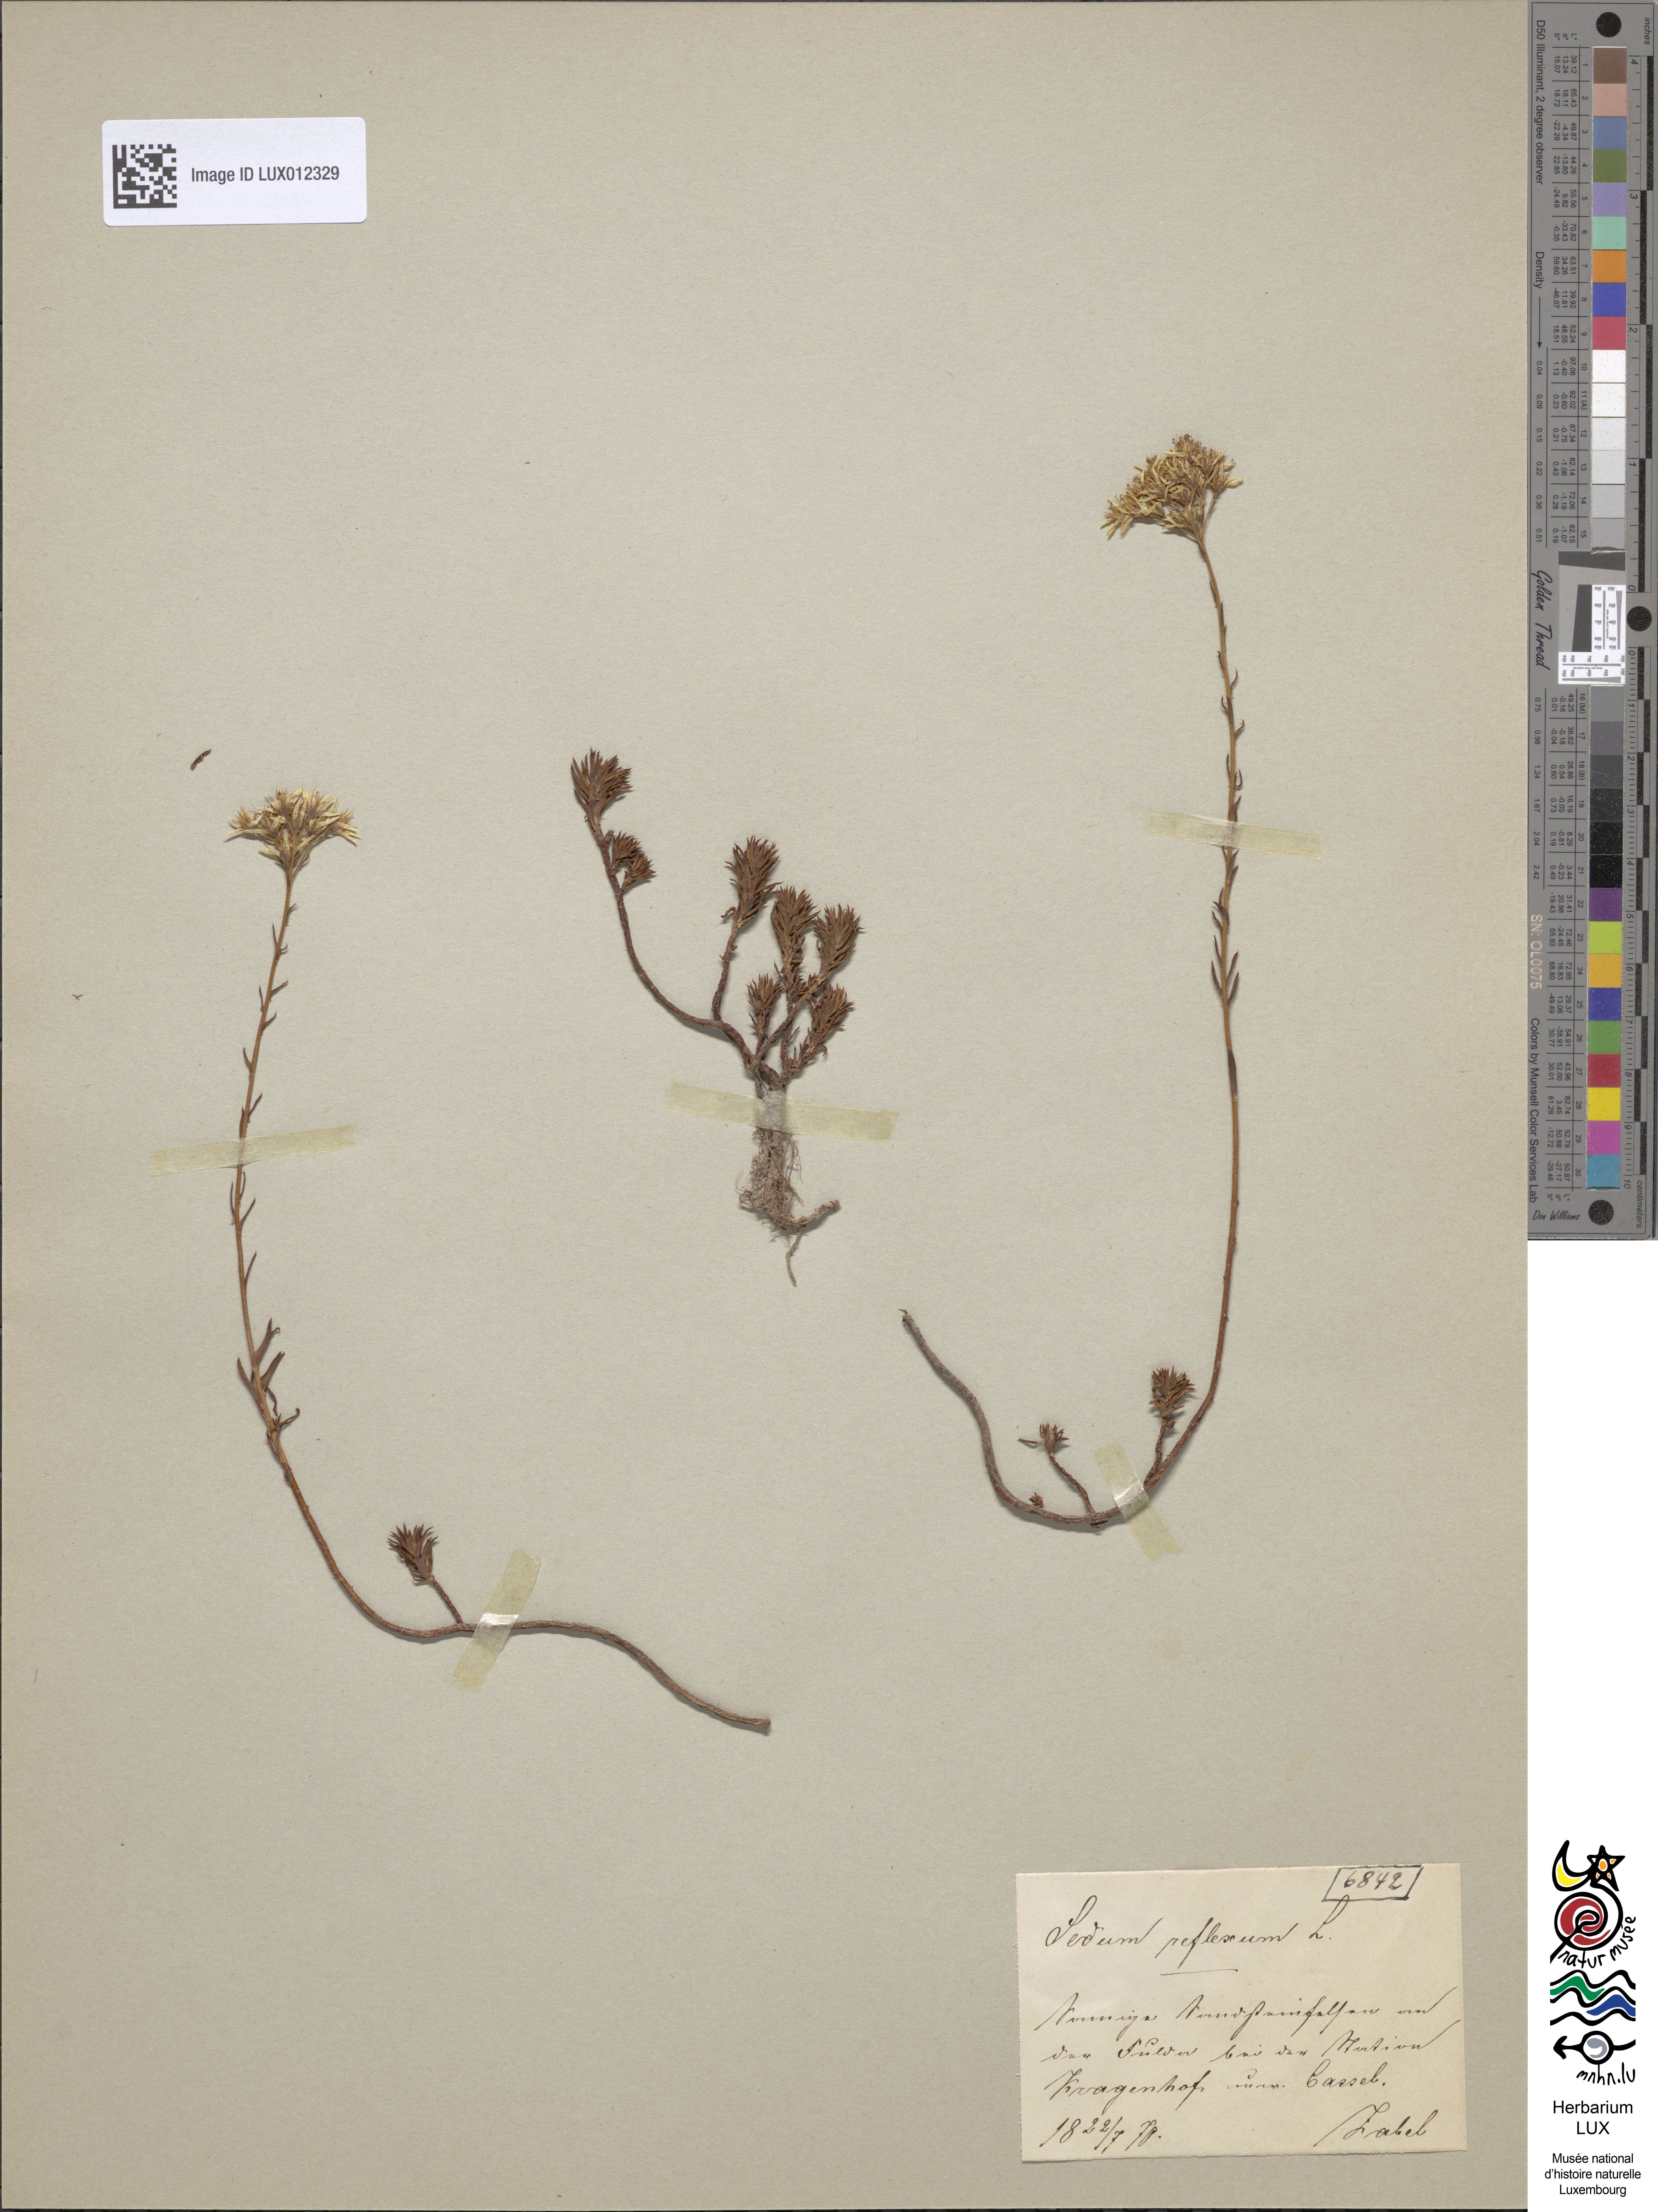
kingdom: Plantae
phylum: Tracheophyta
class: Magnoliopsida
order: Saxifragales
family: Crassulaceae
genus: Petrosedum
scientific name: Petrosedum rupestre
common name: Jenny's stonecrop
